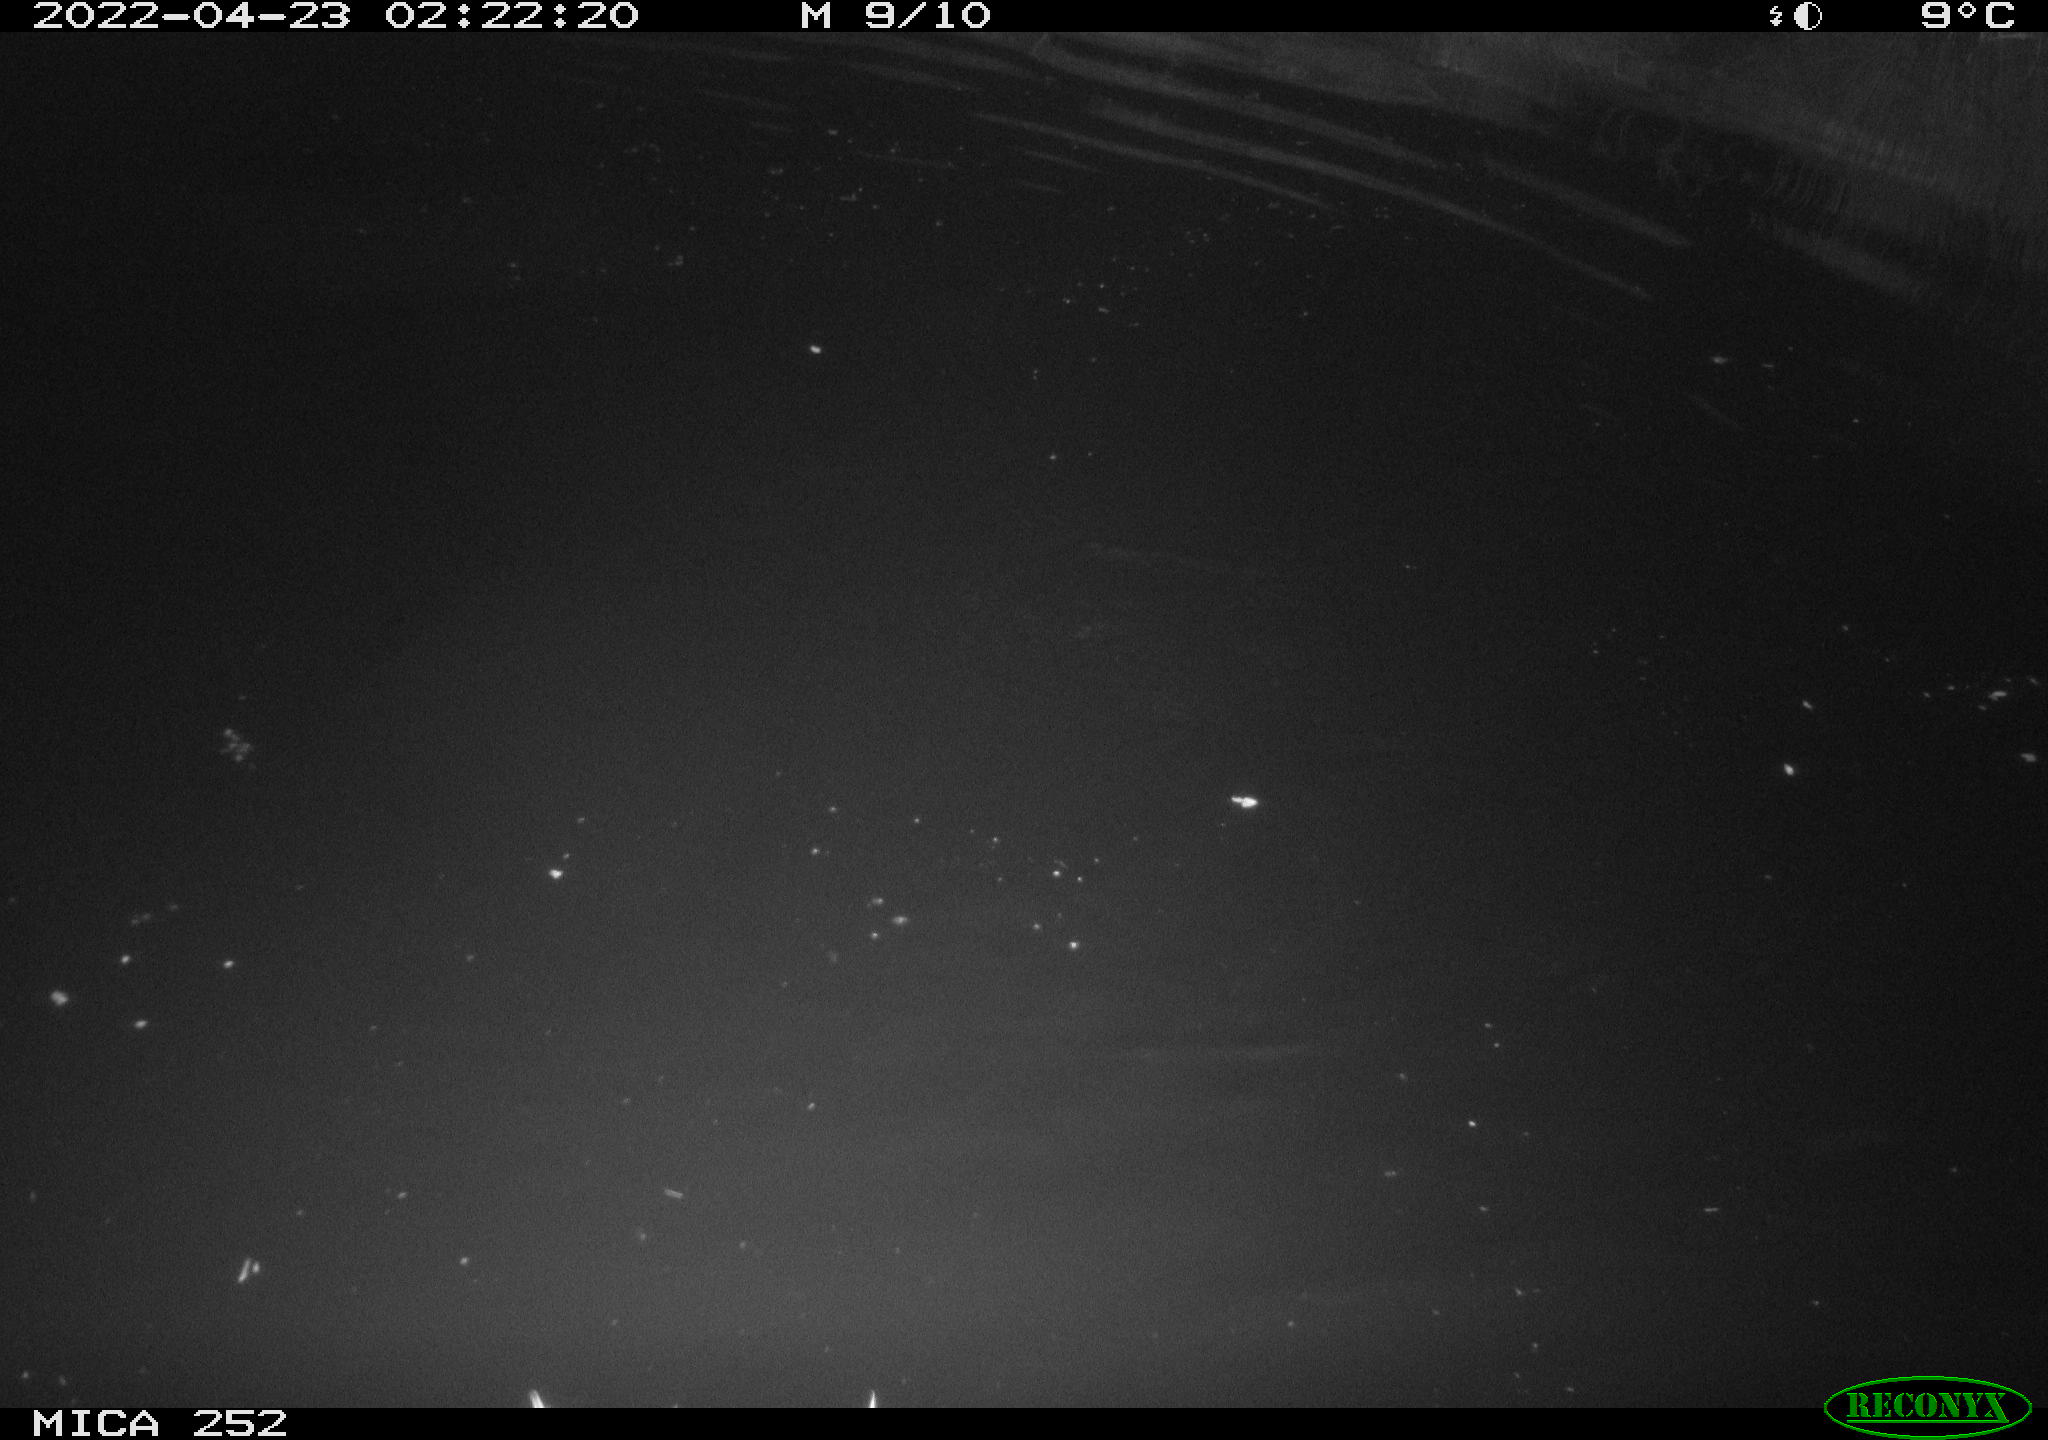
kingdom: Animalia
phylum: Chordata
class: Mammalia
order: Rodentia
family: Castoridae
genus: Castor
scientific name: Castor fiber
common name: Eurasian beaver
